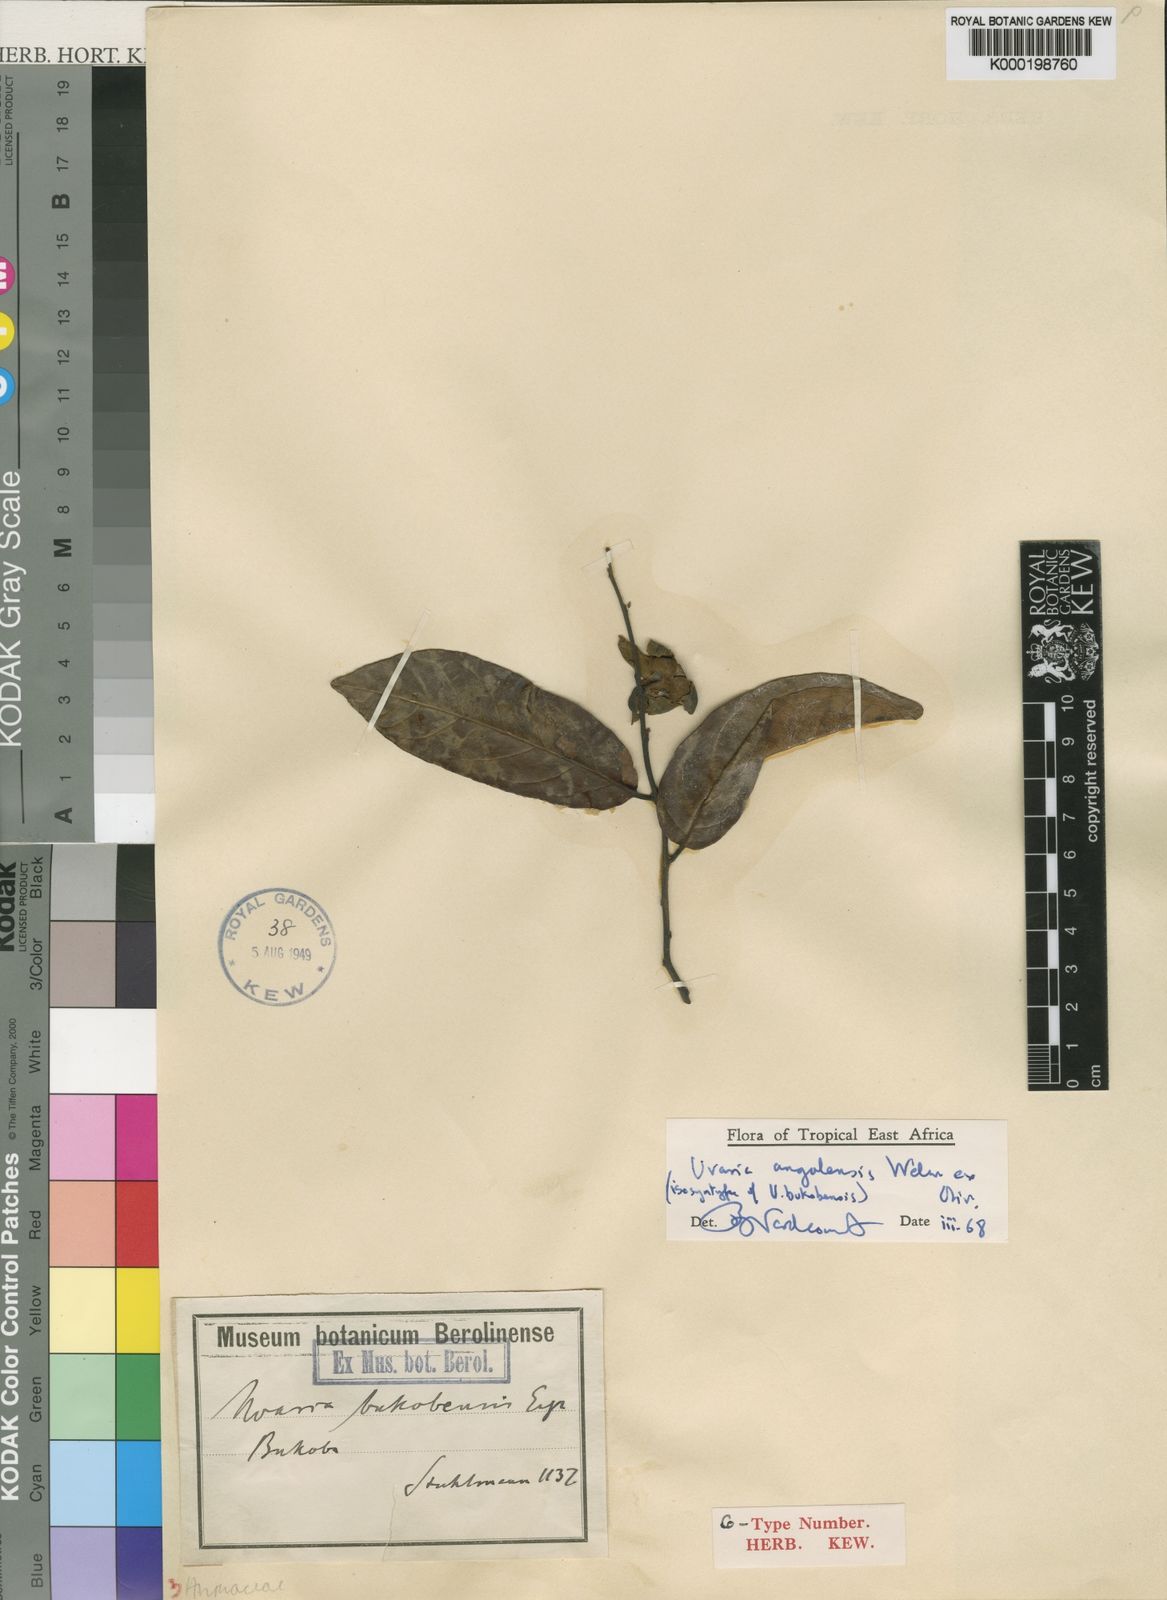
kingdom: Plantae
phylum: Tracheophyta
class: Magnoliopsida
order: Magnoliales
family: Annonaceae
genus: Uvaria
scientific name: Uvaria angolensis
